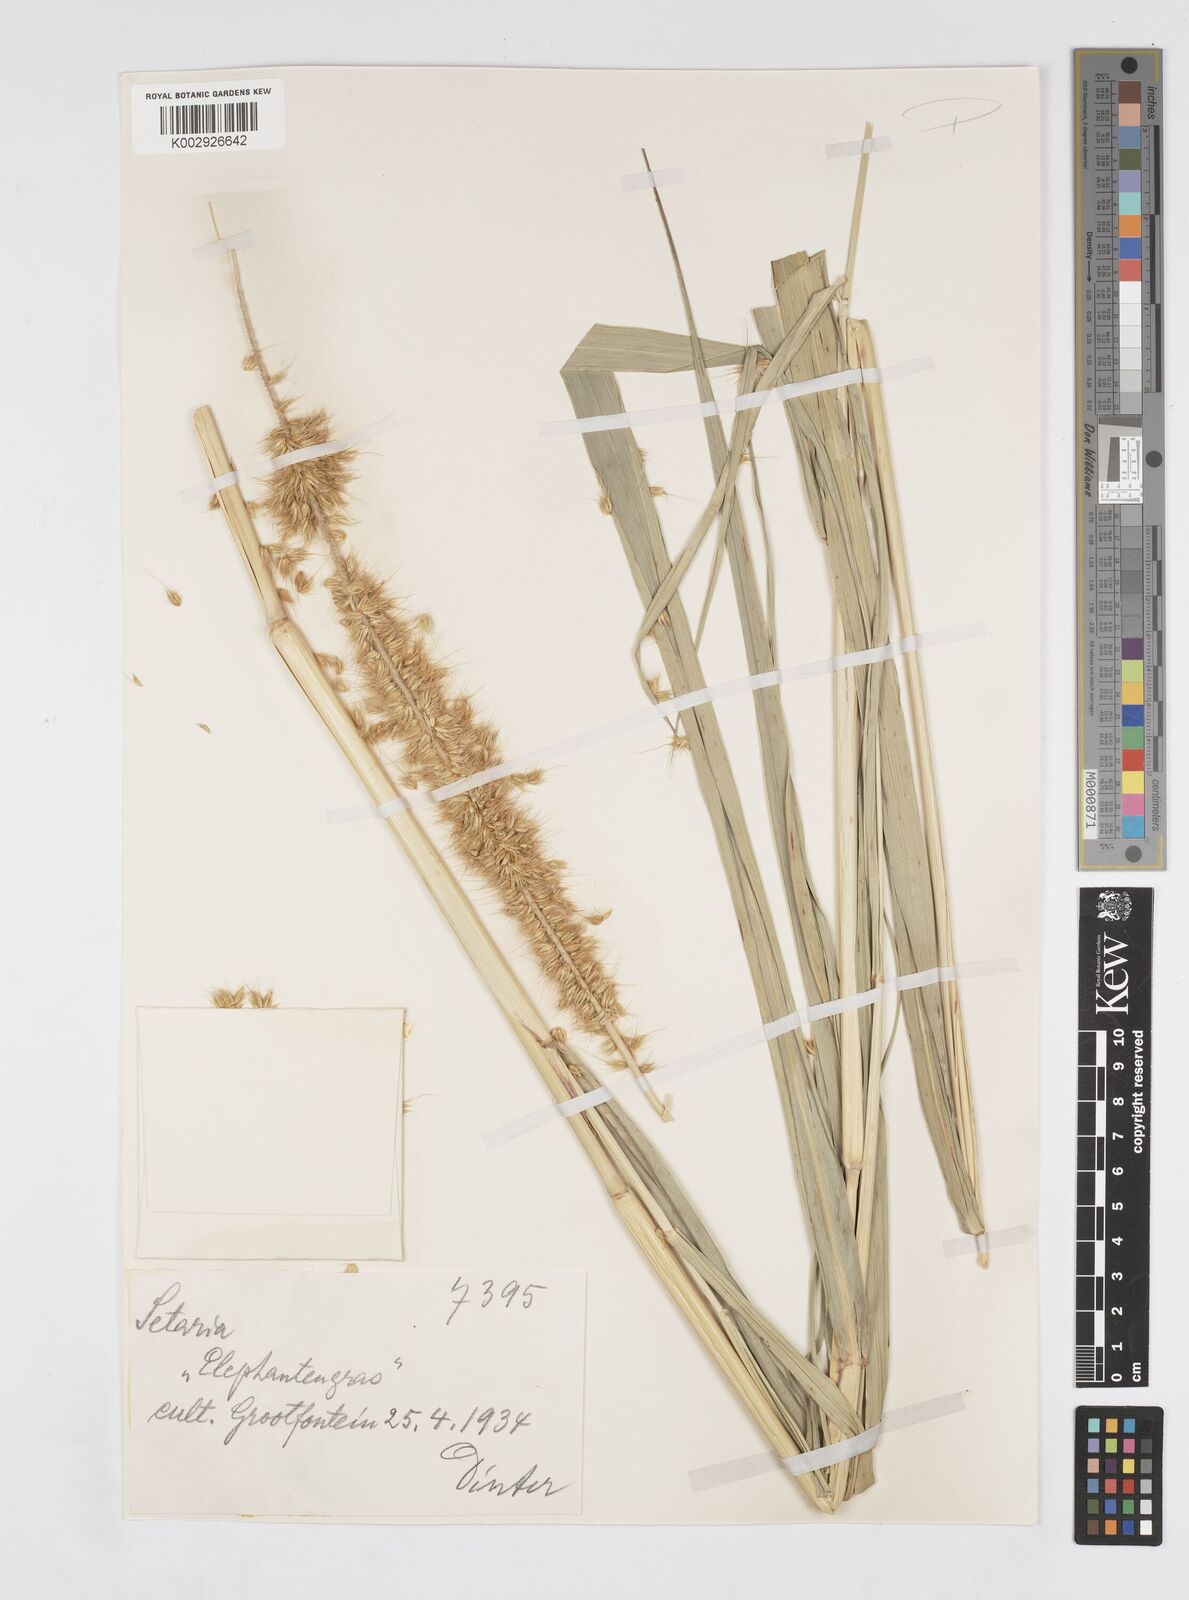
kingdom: Plantae
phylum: Tracheophyta
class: Liliopsida
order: Poales
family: Poaceae
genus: Cenchrus
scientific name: Cenchrus purpureus
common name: Elephant grass
